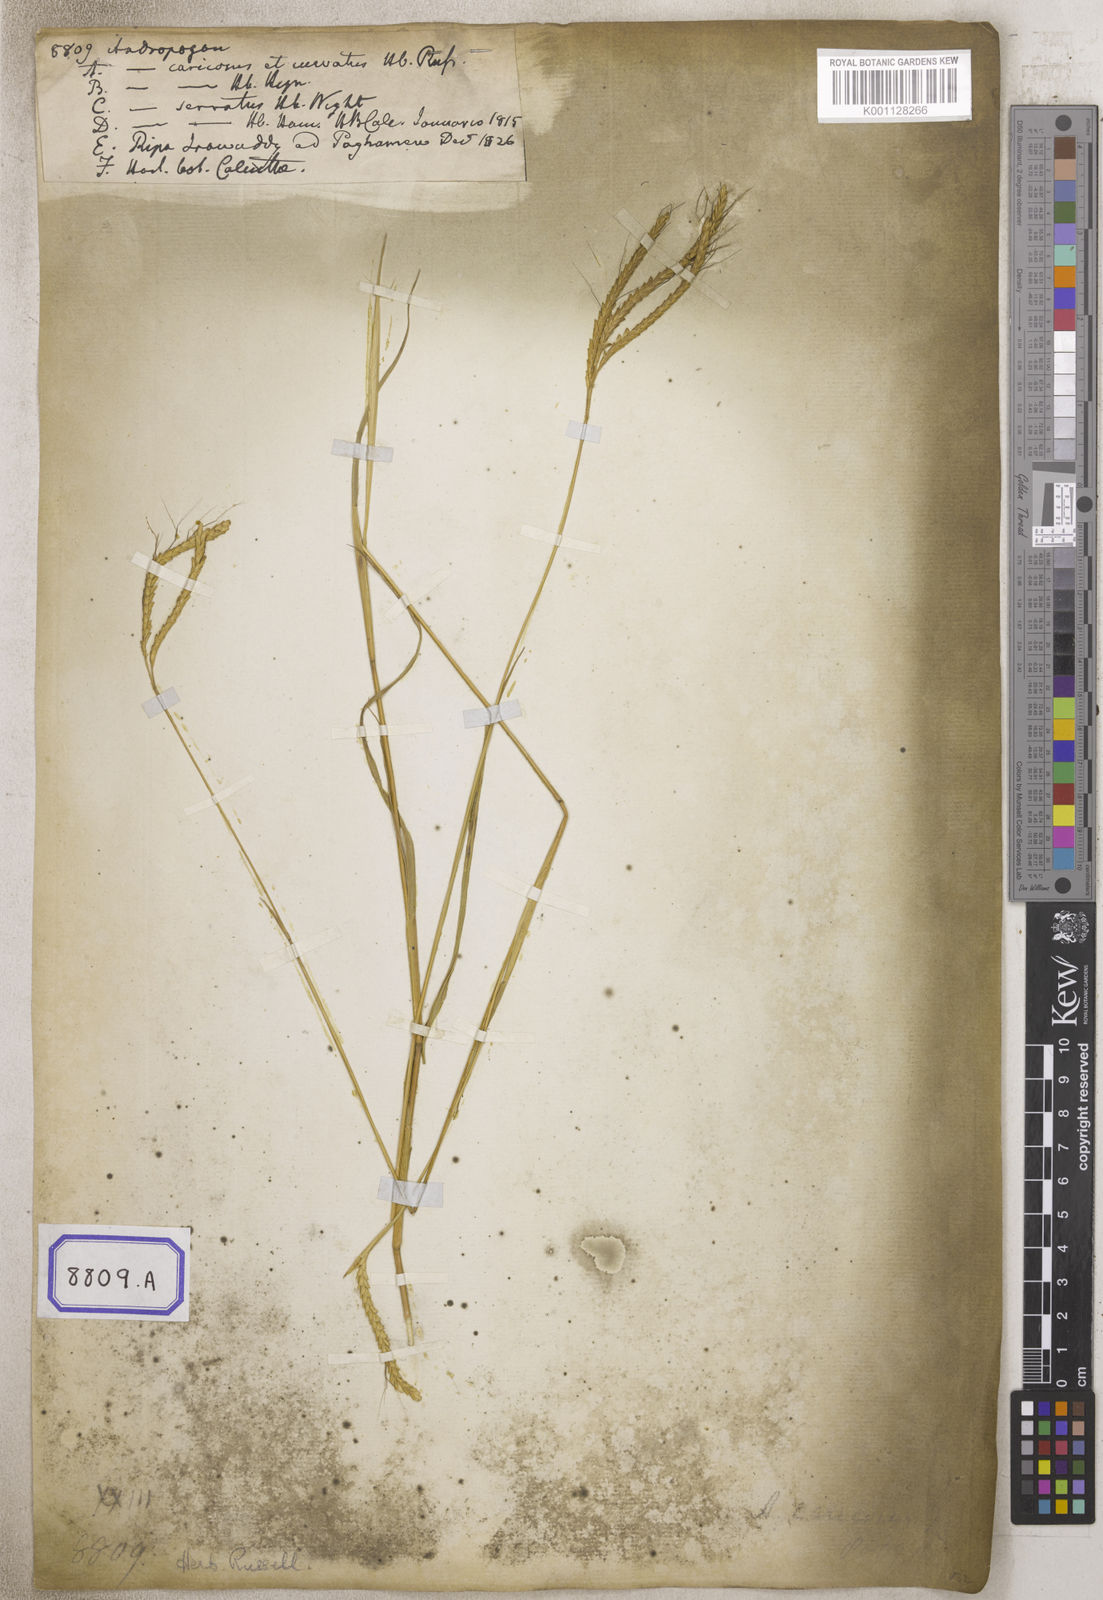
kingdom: Plantae
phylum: Tracheophyta
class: Liliopsida
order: Poales
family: Poaceae
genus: Andropogon
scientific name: Andropogon
